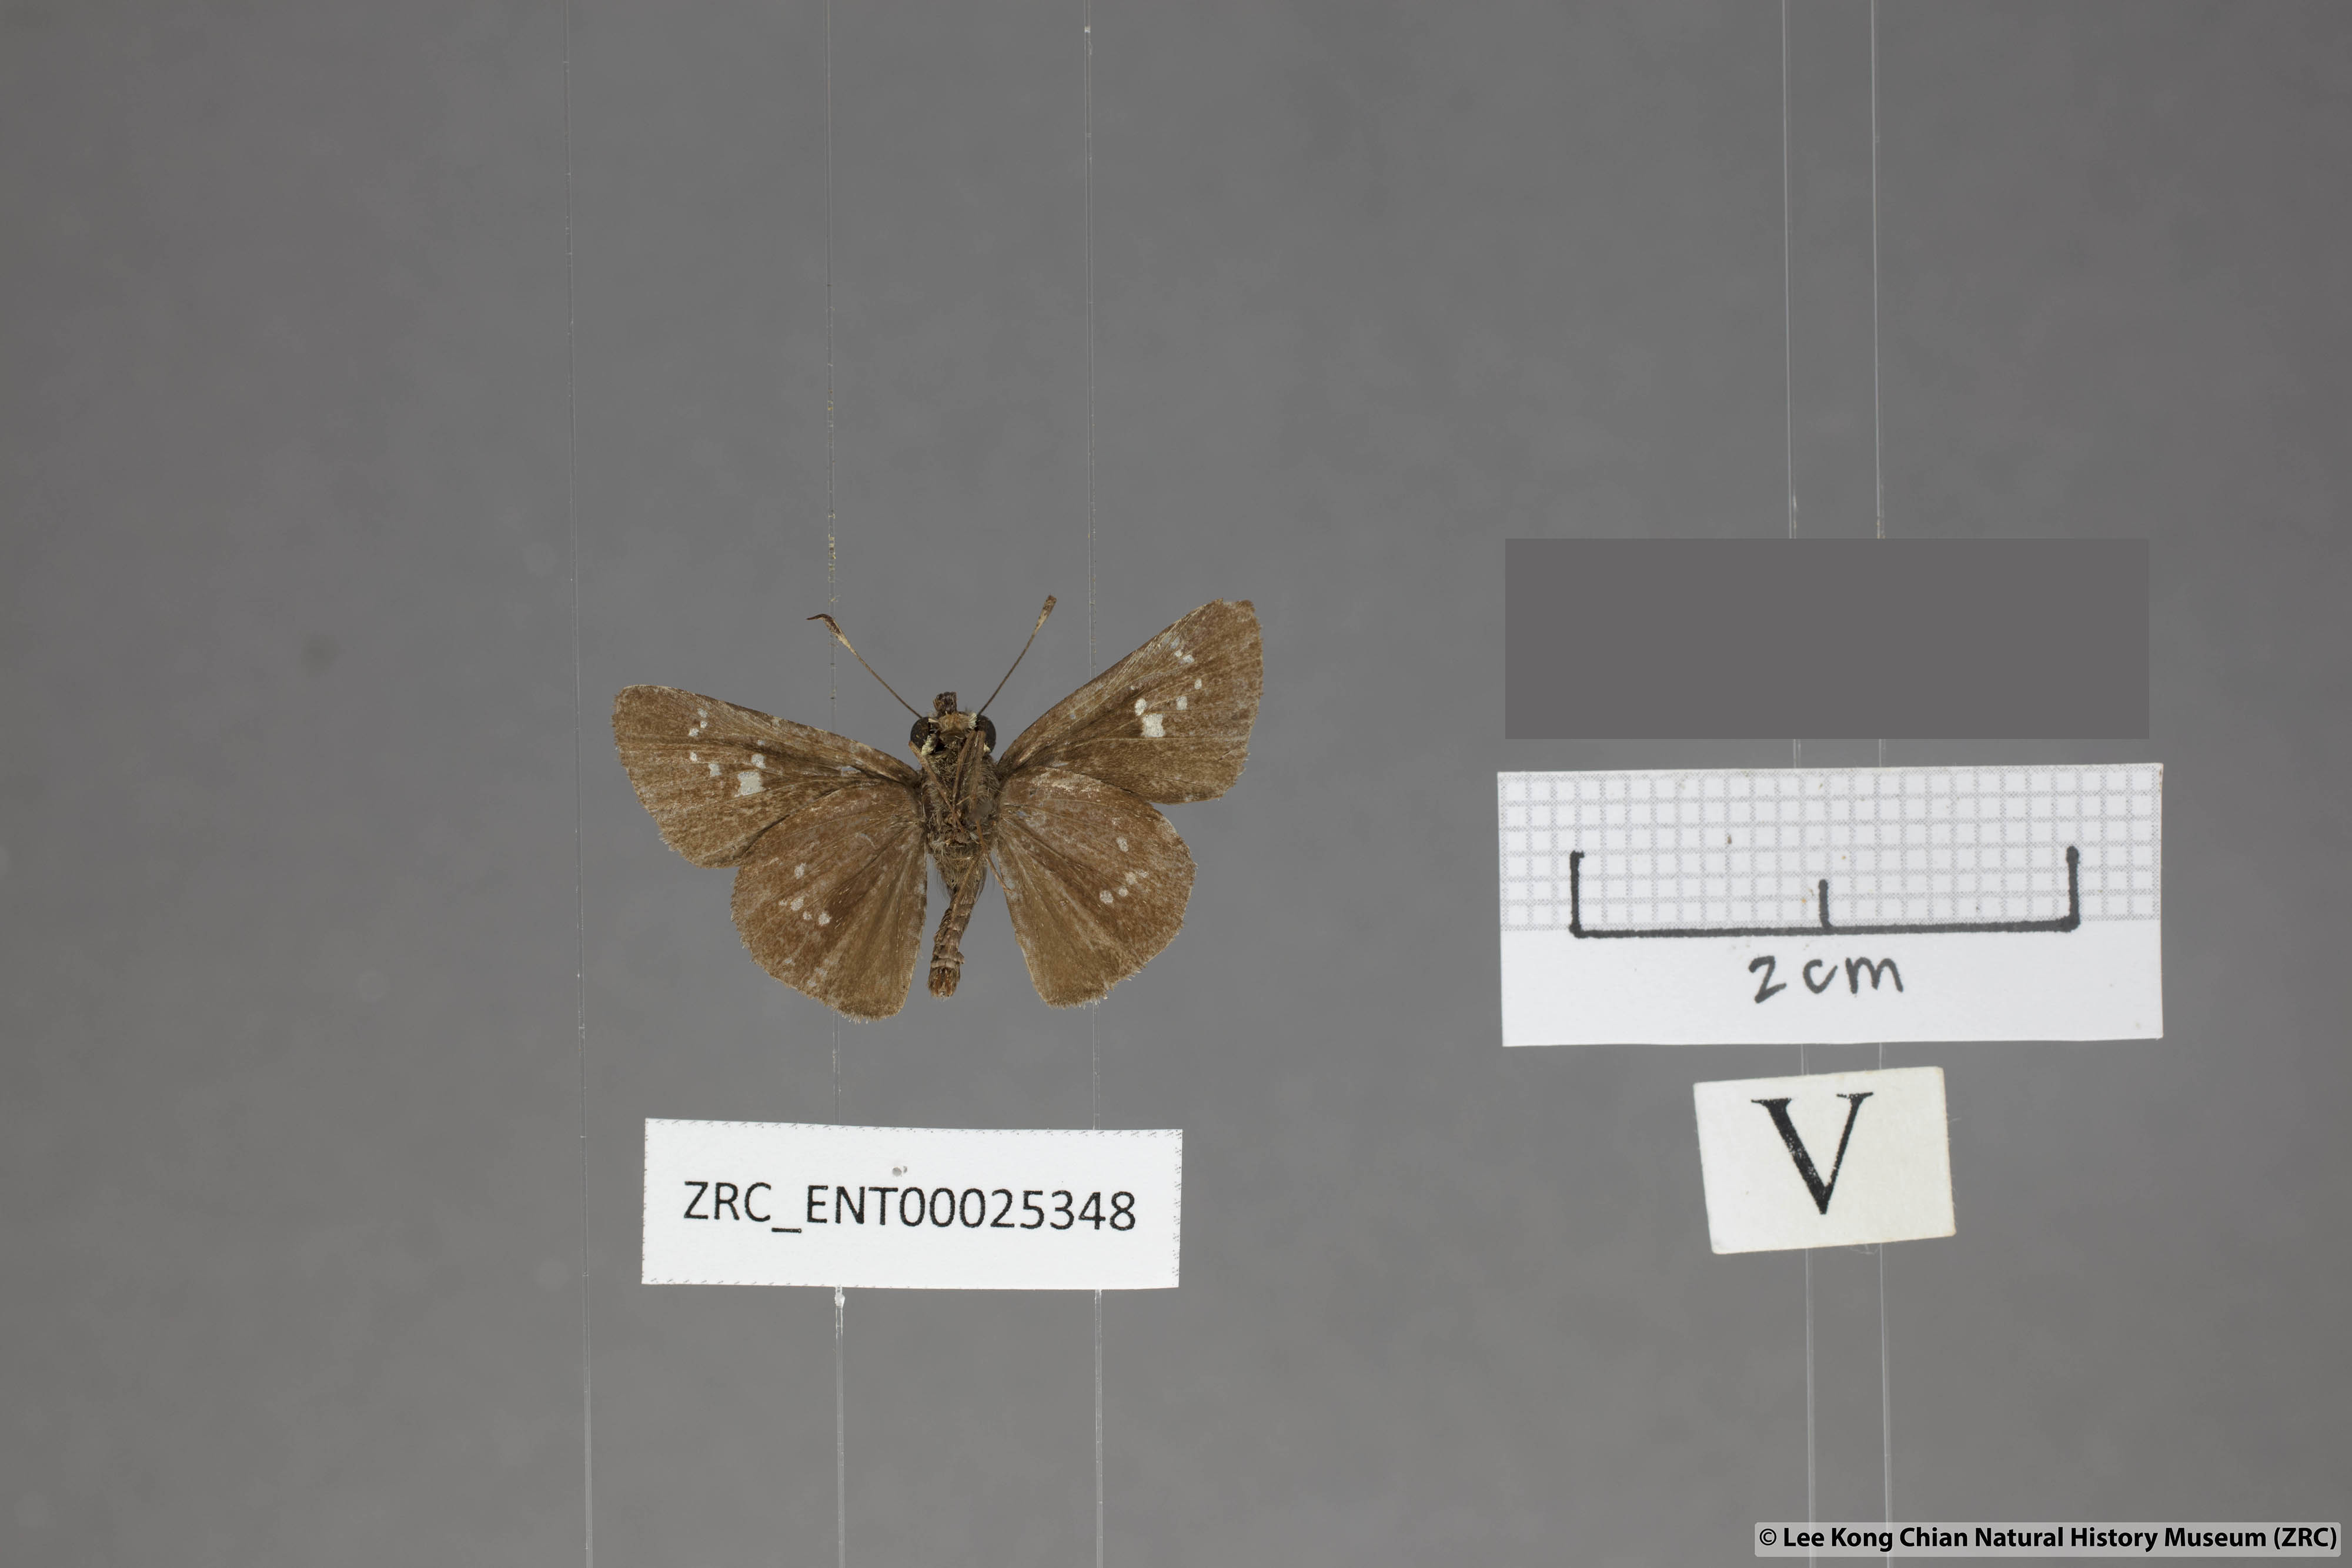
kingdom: Animalia
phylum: Arthropoda
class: Insecta
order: Lepidoptera
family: Hesperiidae
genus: Polytremis
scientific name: Polytremis minuta
